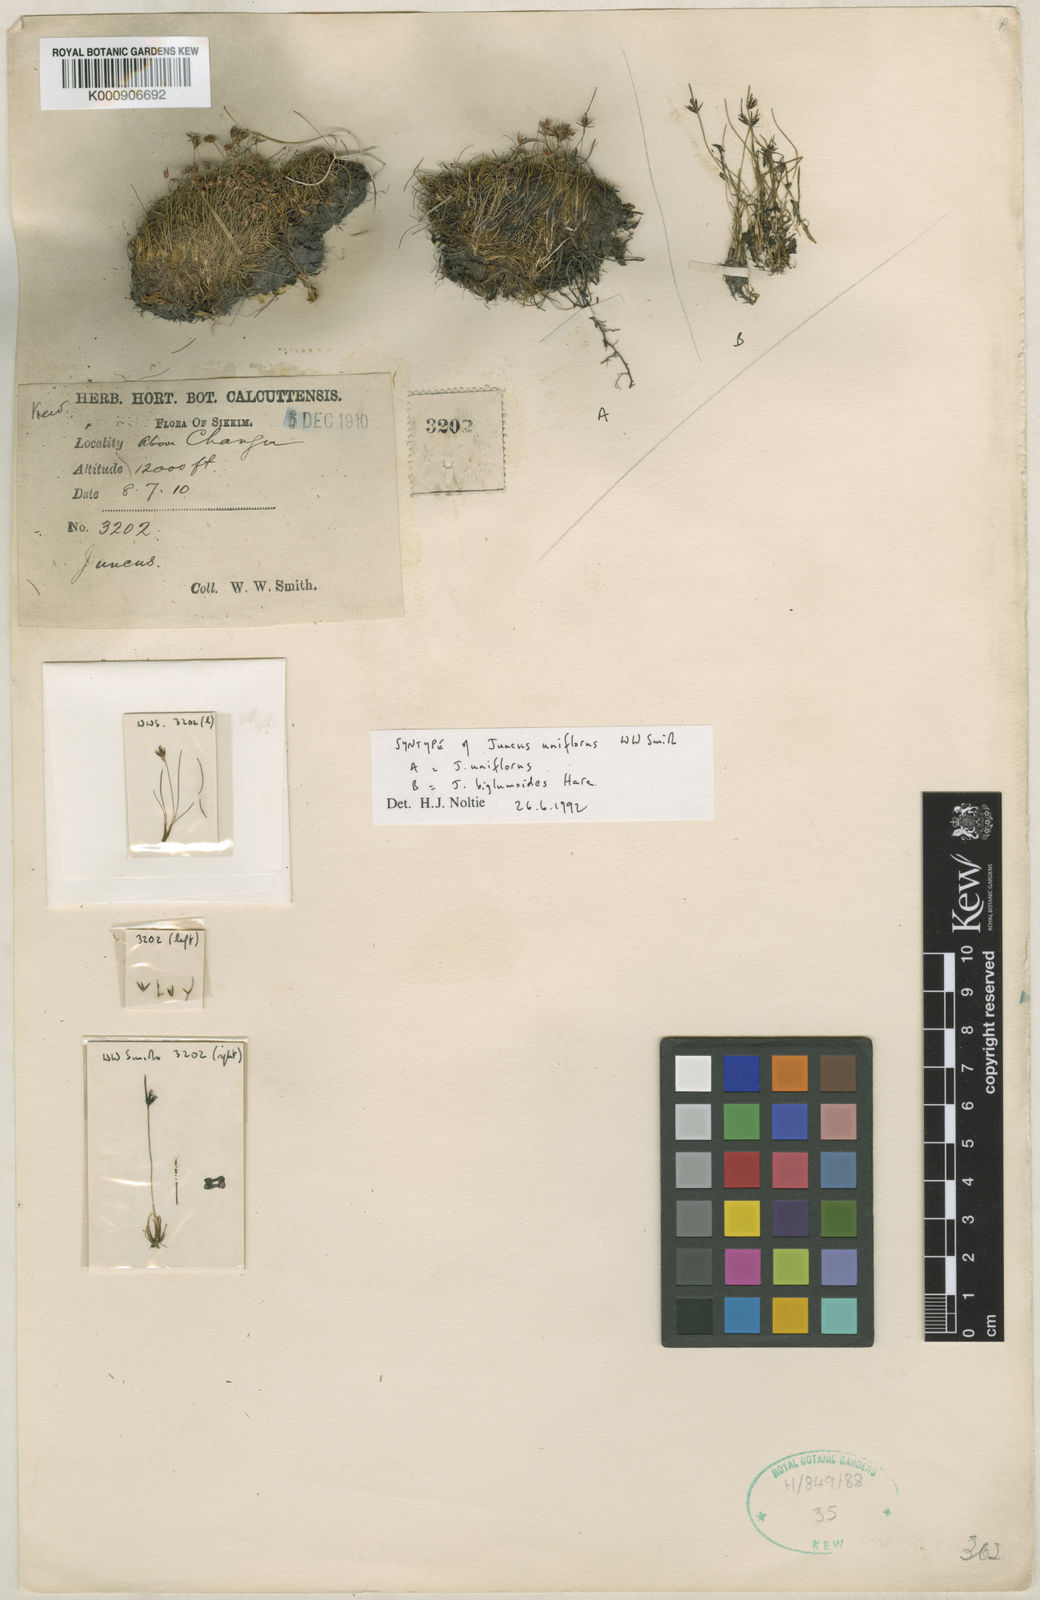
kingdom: Plantae
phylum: Tracheophyta
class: Liliopsida
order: Poales
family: Juncaceae
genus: Juncus
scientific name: Juncus uniflorus
